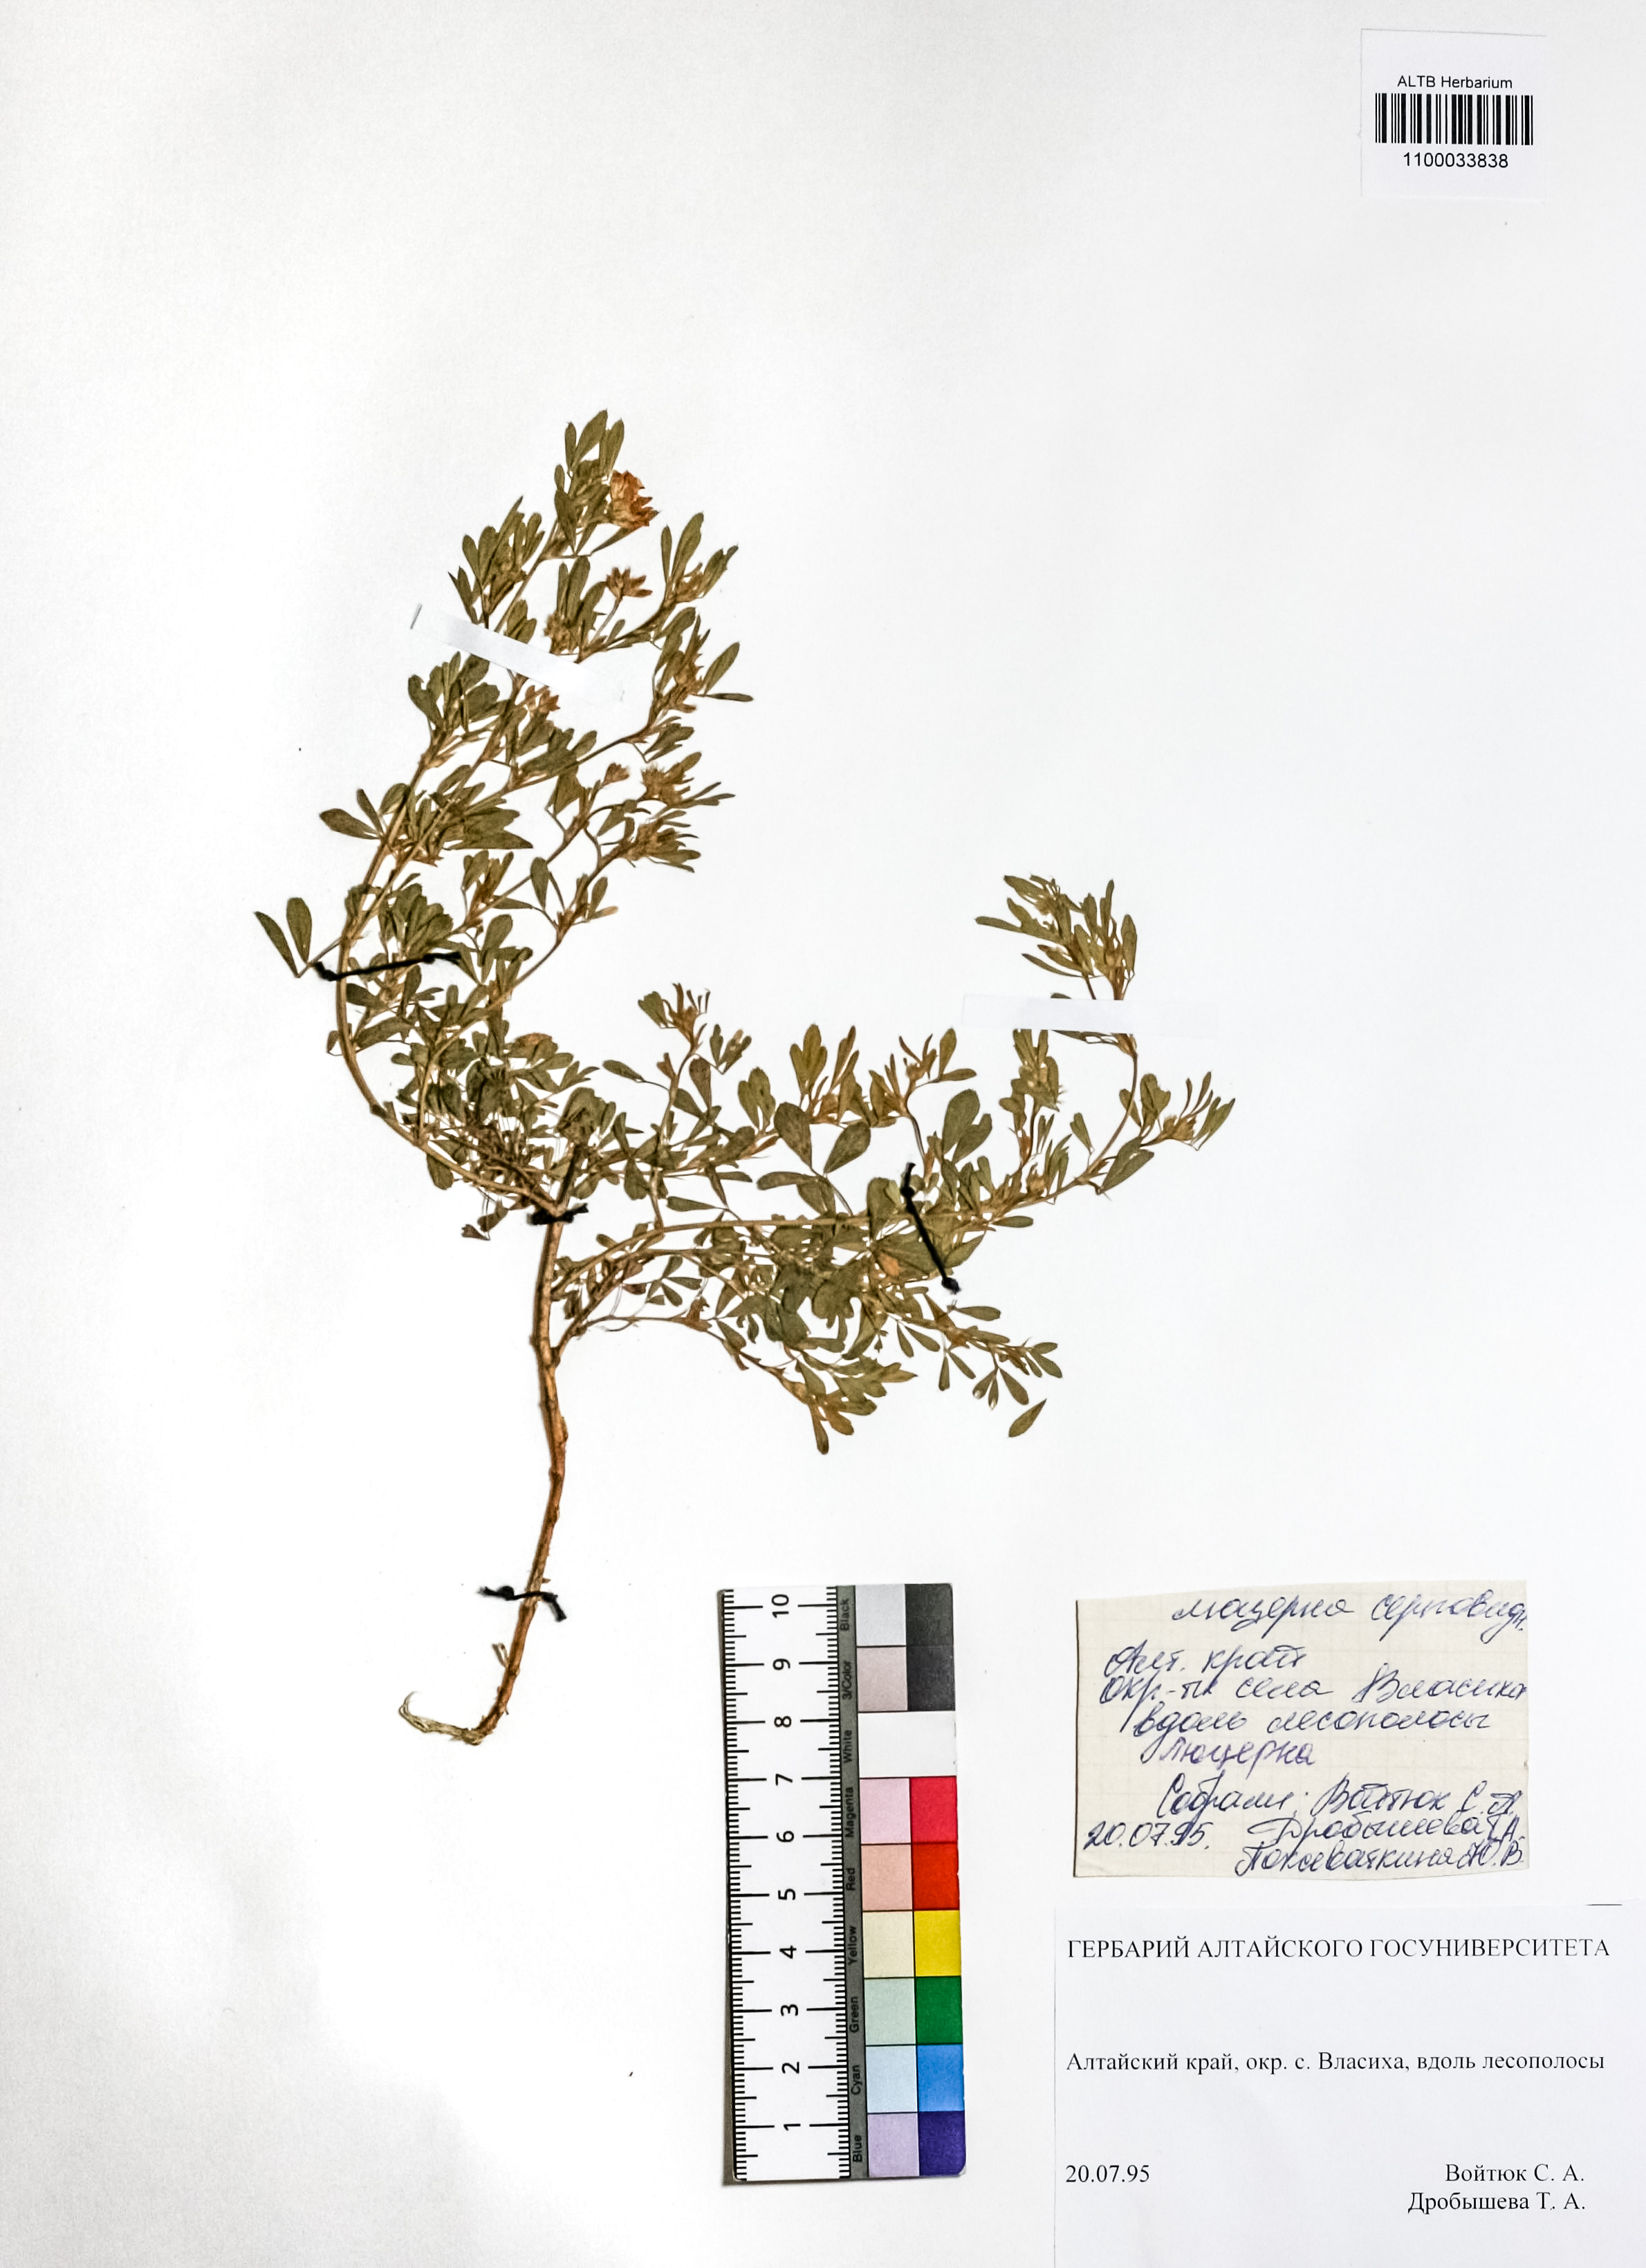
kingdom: Plantae
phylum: Tracheophyta
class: Magnoliopsida
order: Fabales
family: Fabaceae
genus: Medicago
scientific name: Medicago falcata
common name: Sickle medick
